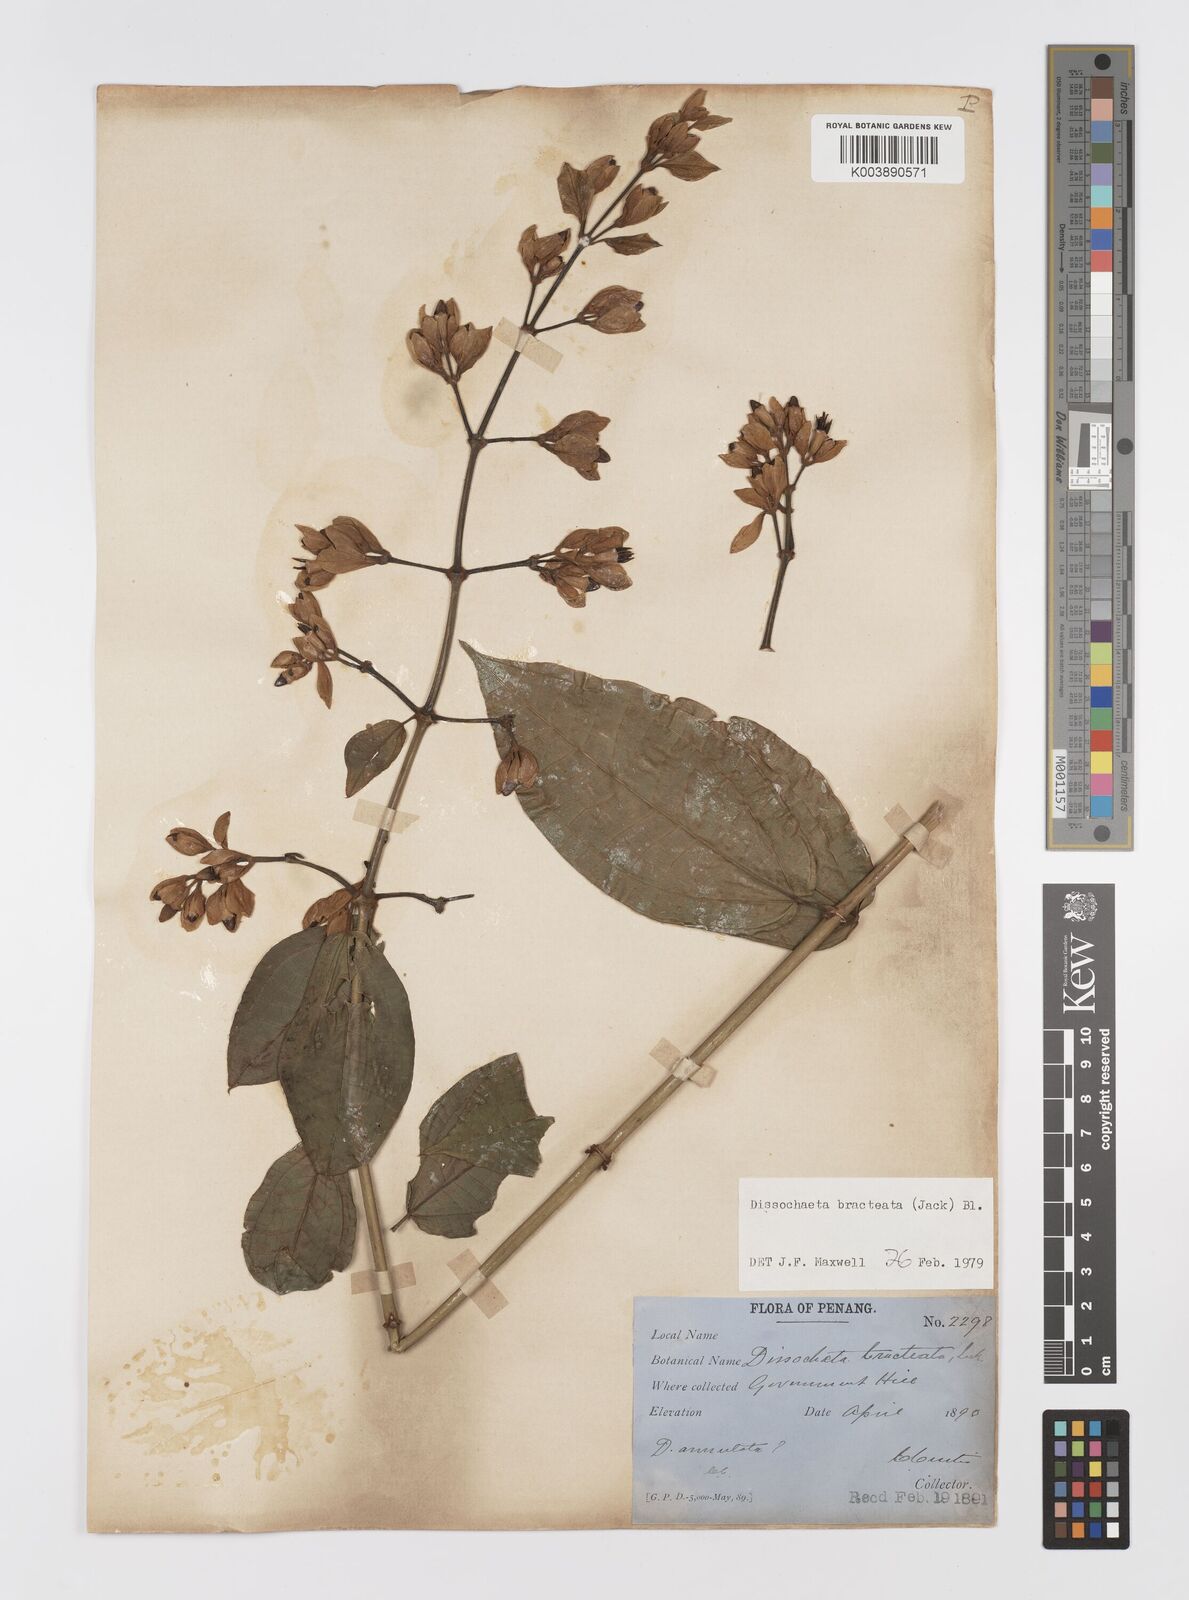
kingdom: Plantae
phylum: Tracheophyta
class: Magnoliopsida
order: Myrtales
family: Melastomataceae
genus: Dissochaeta
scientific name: Dissochaeta bracteata
